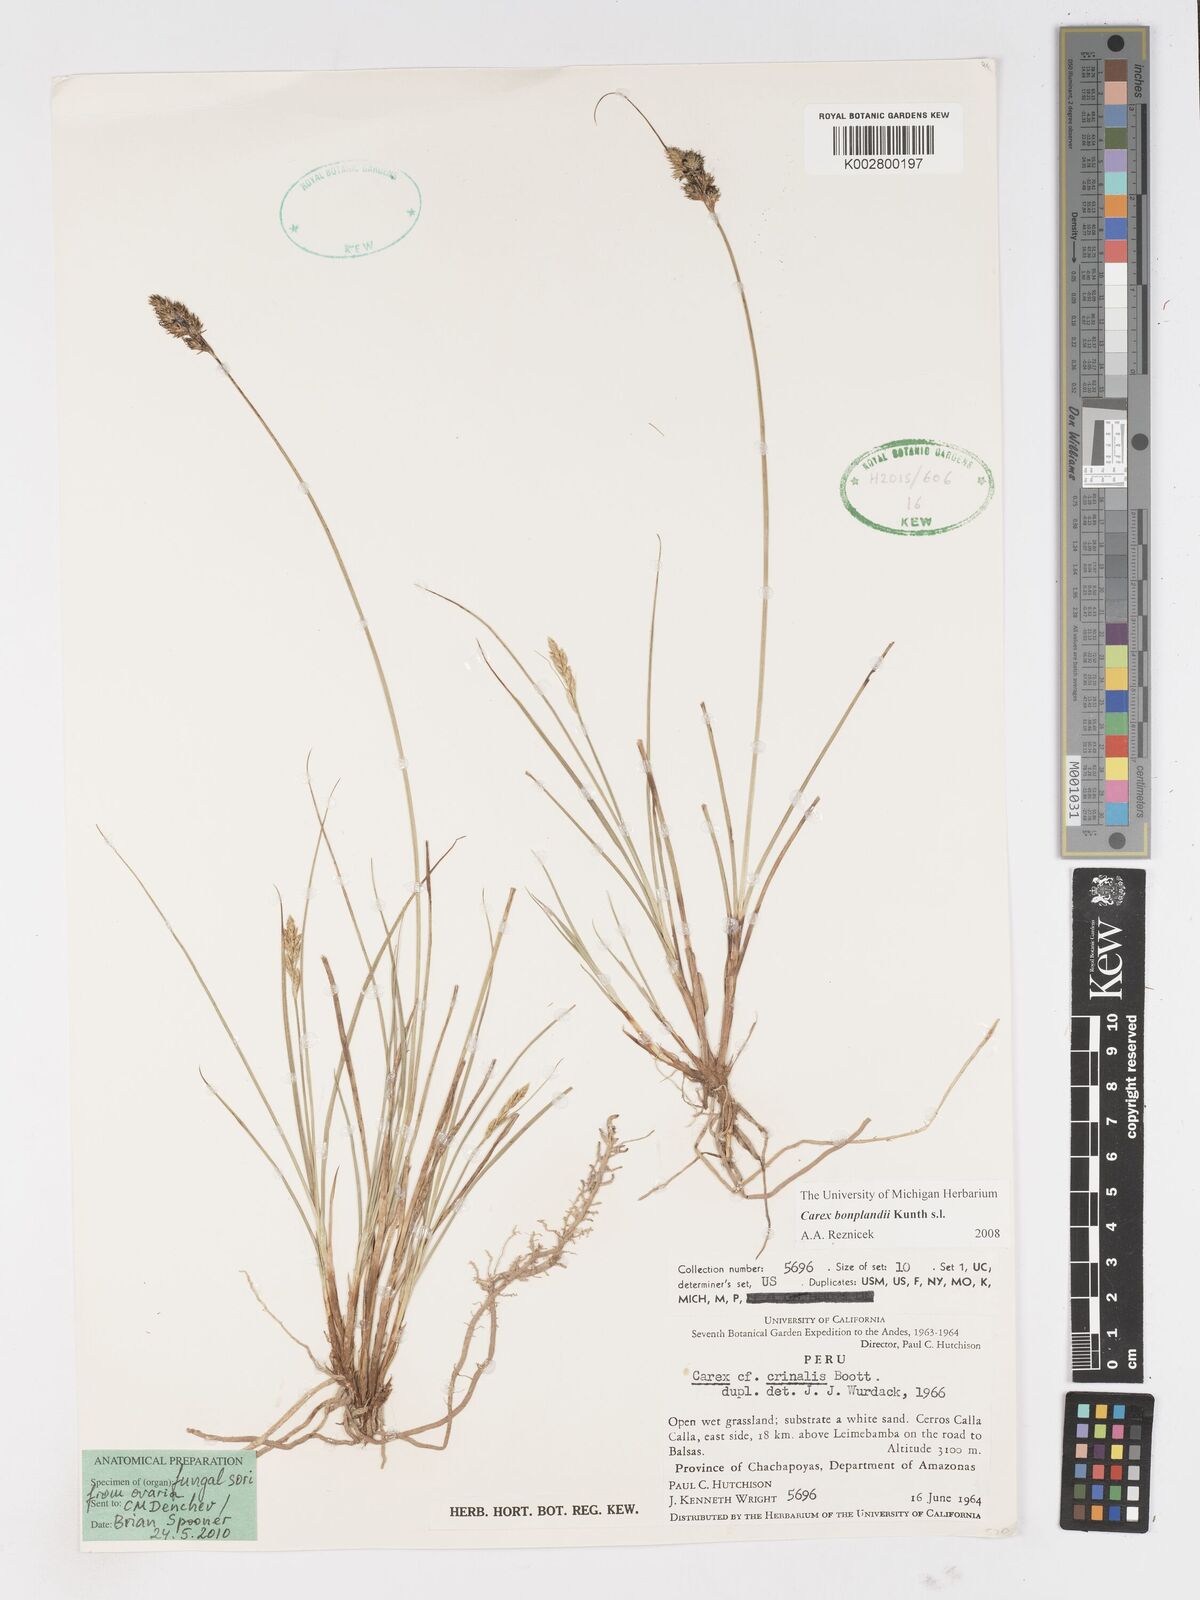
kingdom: Plantae
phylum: Tracheophyta
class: Liliopsida
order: Poales
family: Cyperaceae
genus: Carex
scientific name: Carex bonplandii
